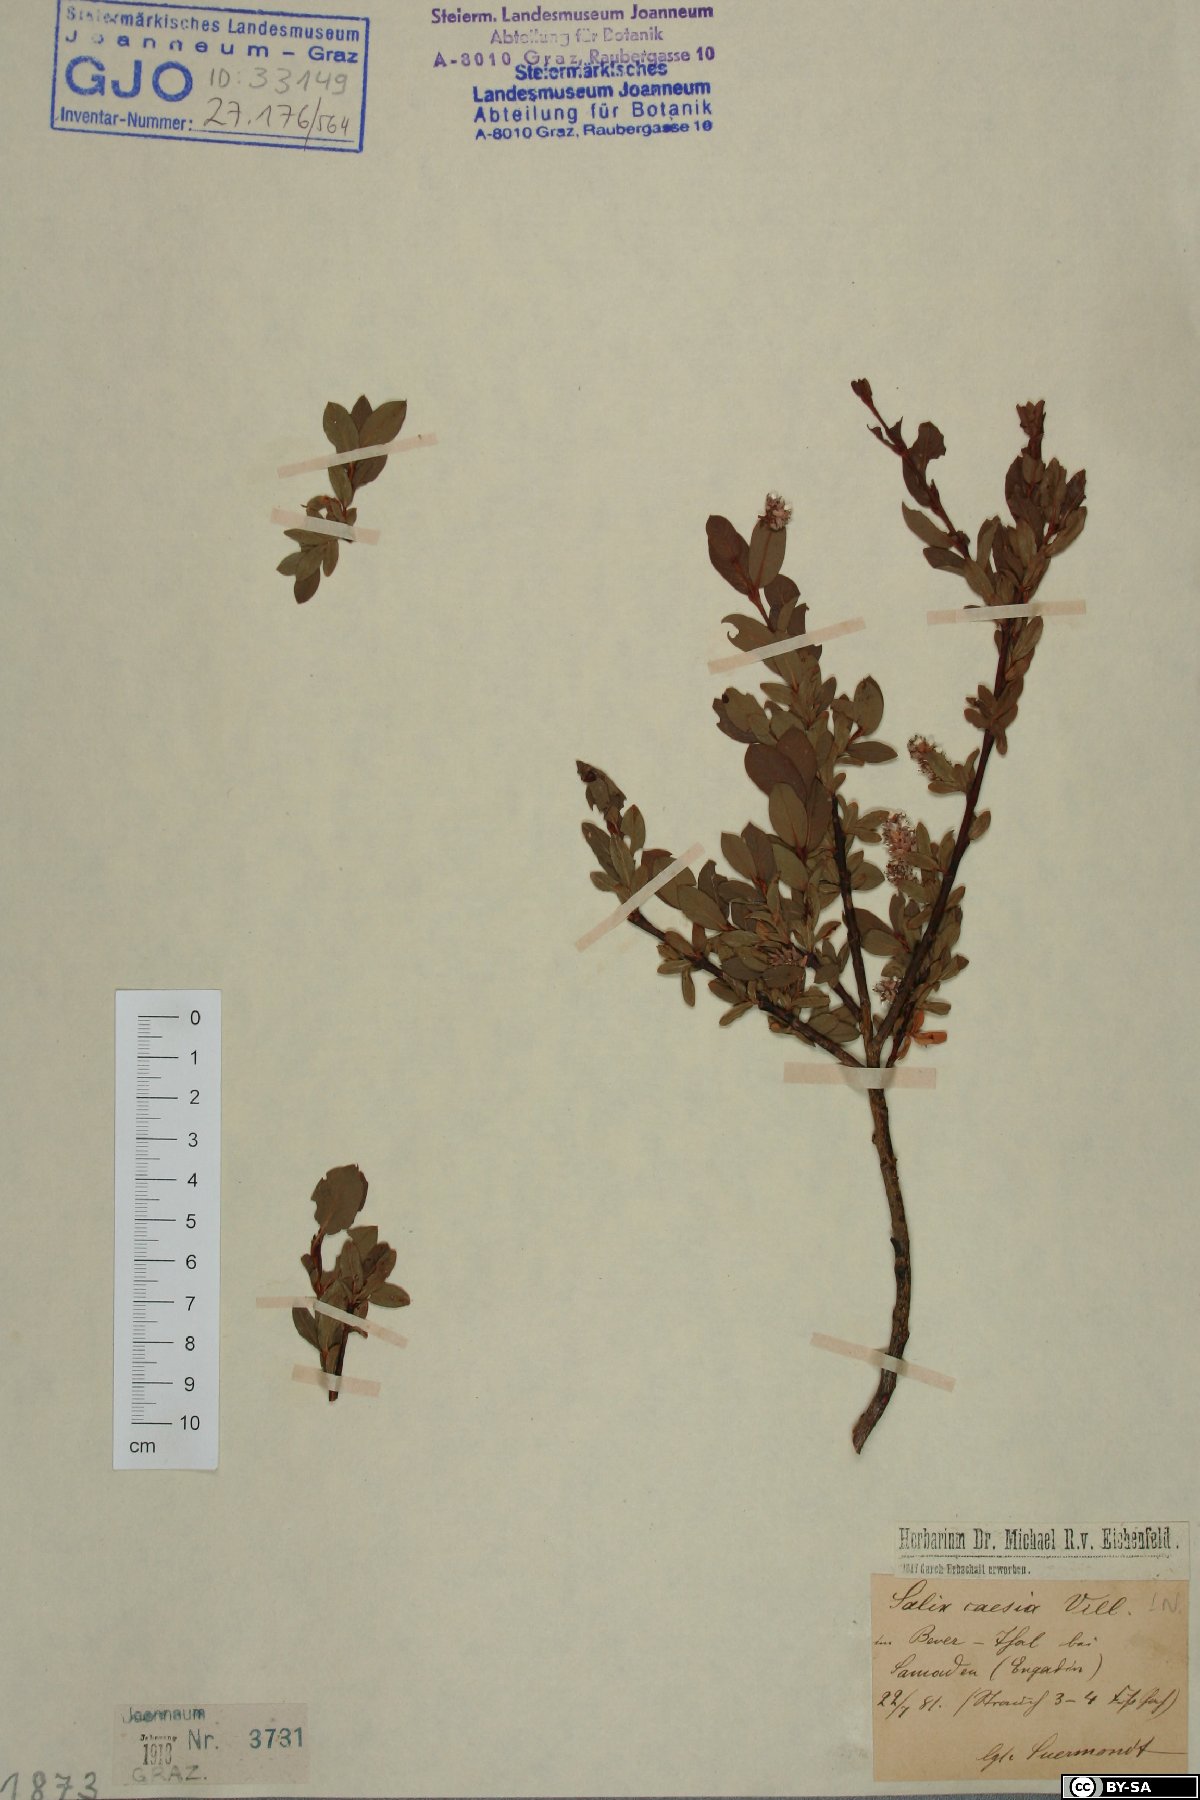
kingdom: Plantae
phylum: Tracheophyta
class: Magnoliopsida
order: Malpighiales
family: Salicaceae
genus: Salix
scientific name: Salix caesia
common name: Blue willow
